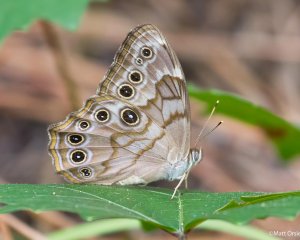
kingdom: Animalia
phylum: Arthropoda
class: Insecta
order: Lepidoptera
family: Nymphalidae
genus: Lethe
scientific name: Lethe creola
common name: Creole Pearly-Eye
